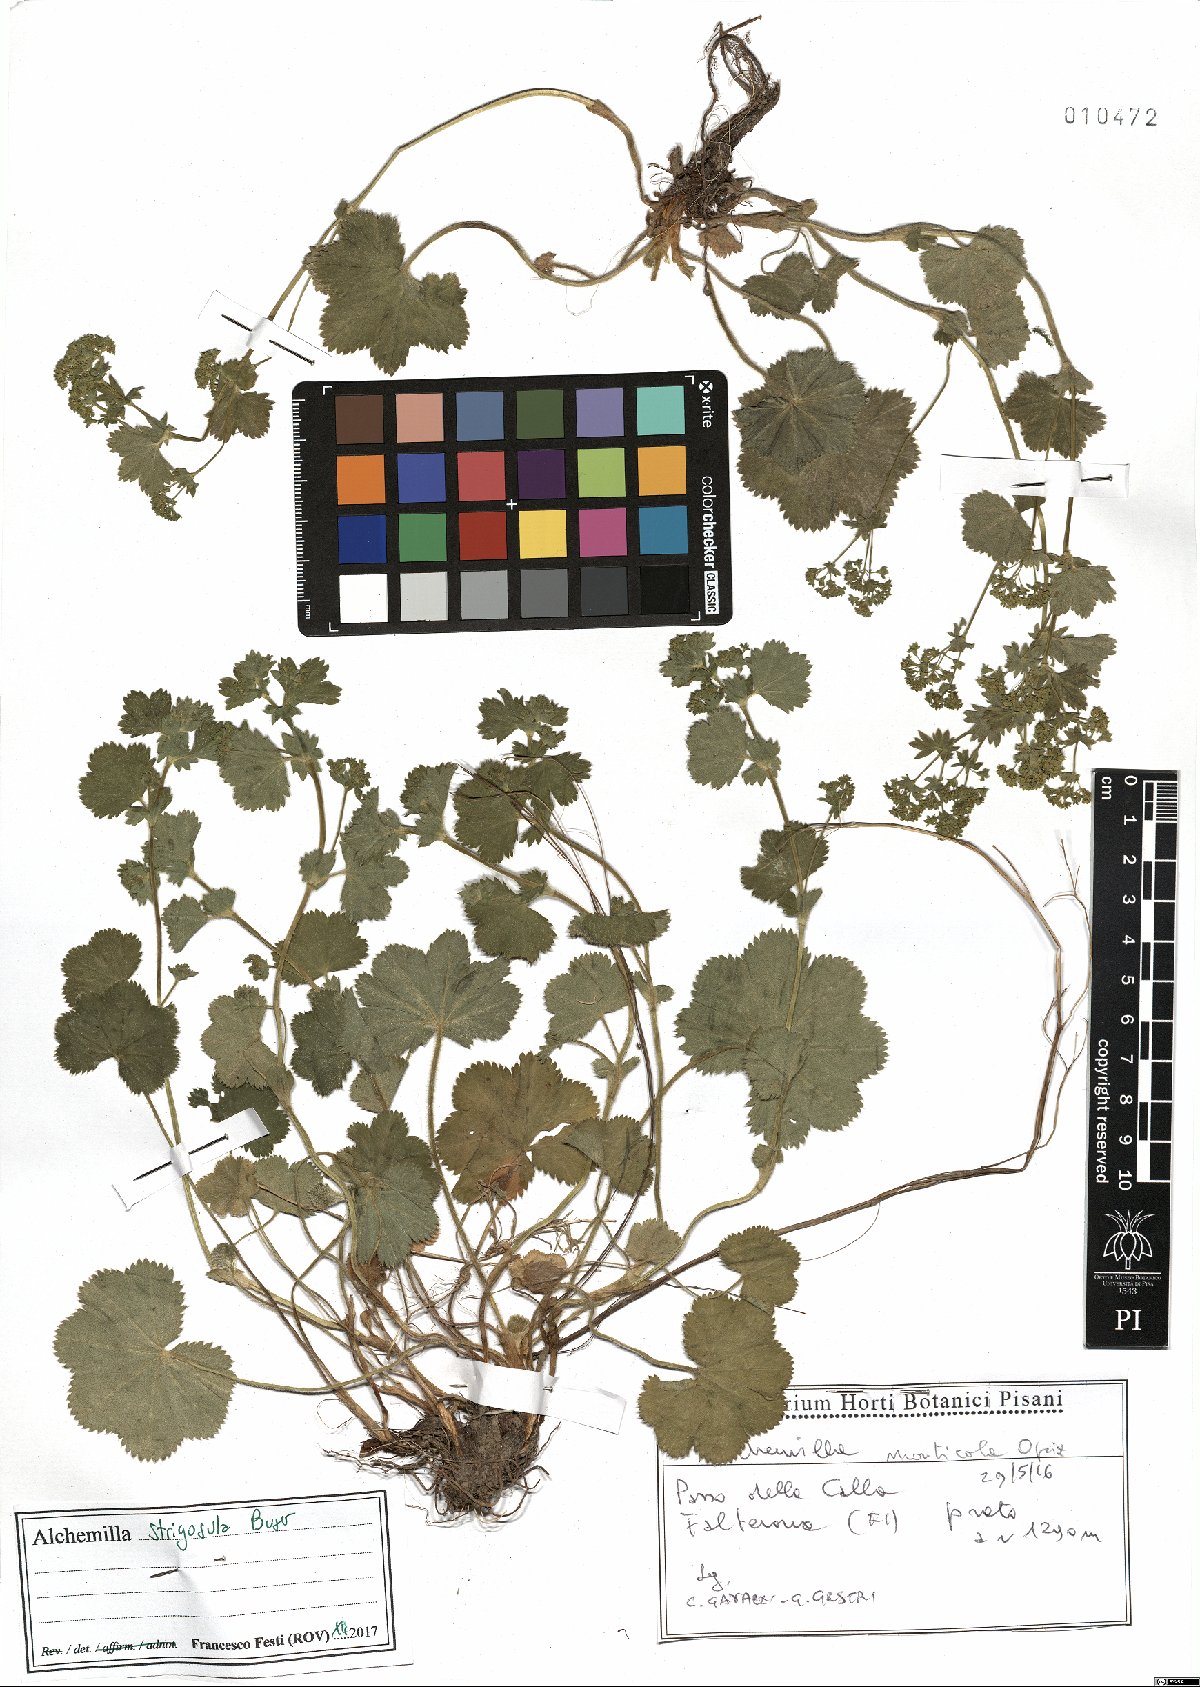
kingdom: Plantae
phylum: Tracheophyta
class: Magnoliopsida
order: Rosales
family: Rosaceae
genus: Alchemilla
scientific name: Alchemilla strigosula
